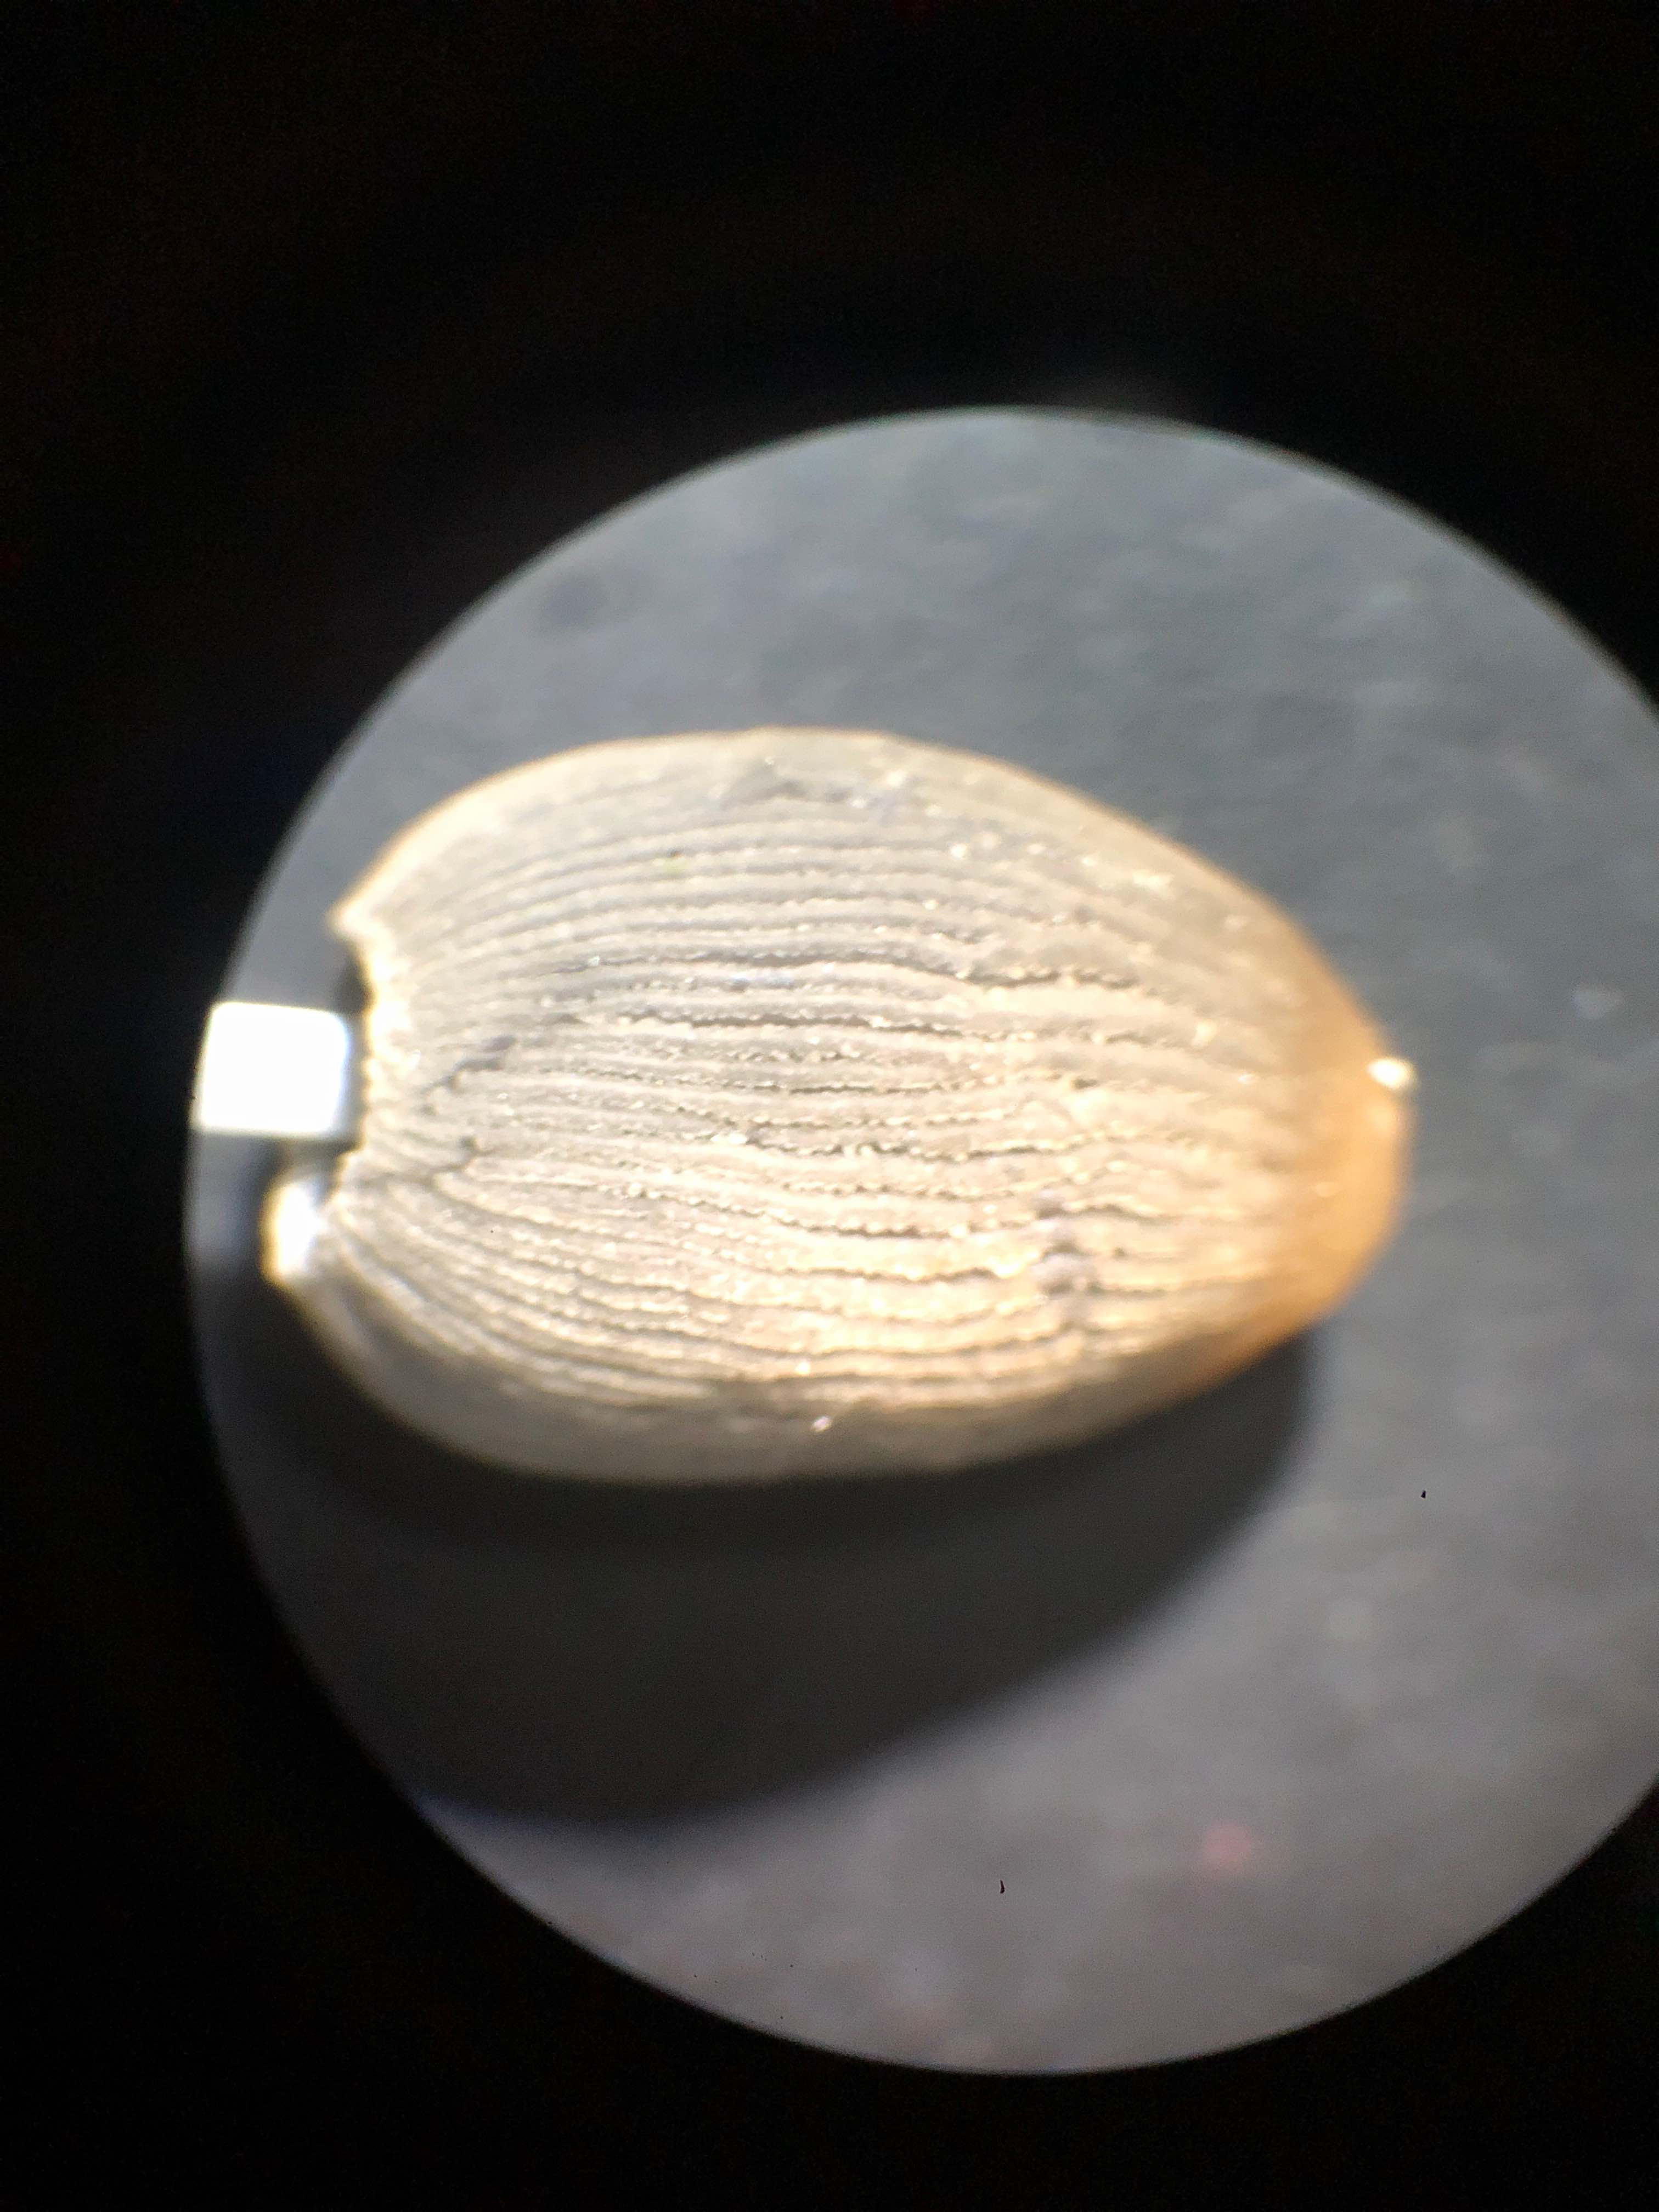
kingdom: Fungi
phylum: Basidiomycota
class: Agaricomycetes
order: Agaricales
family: Psathyrellaceae
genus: Parasola
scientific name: Parasola lactea
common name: glat hjulhat
